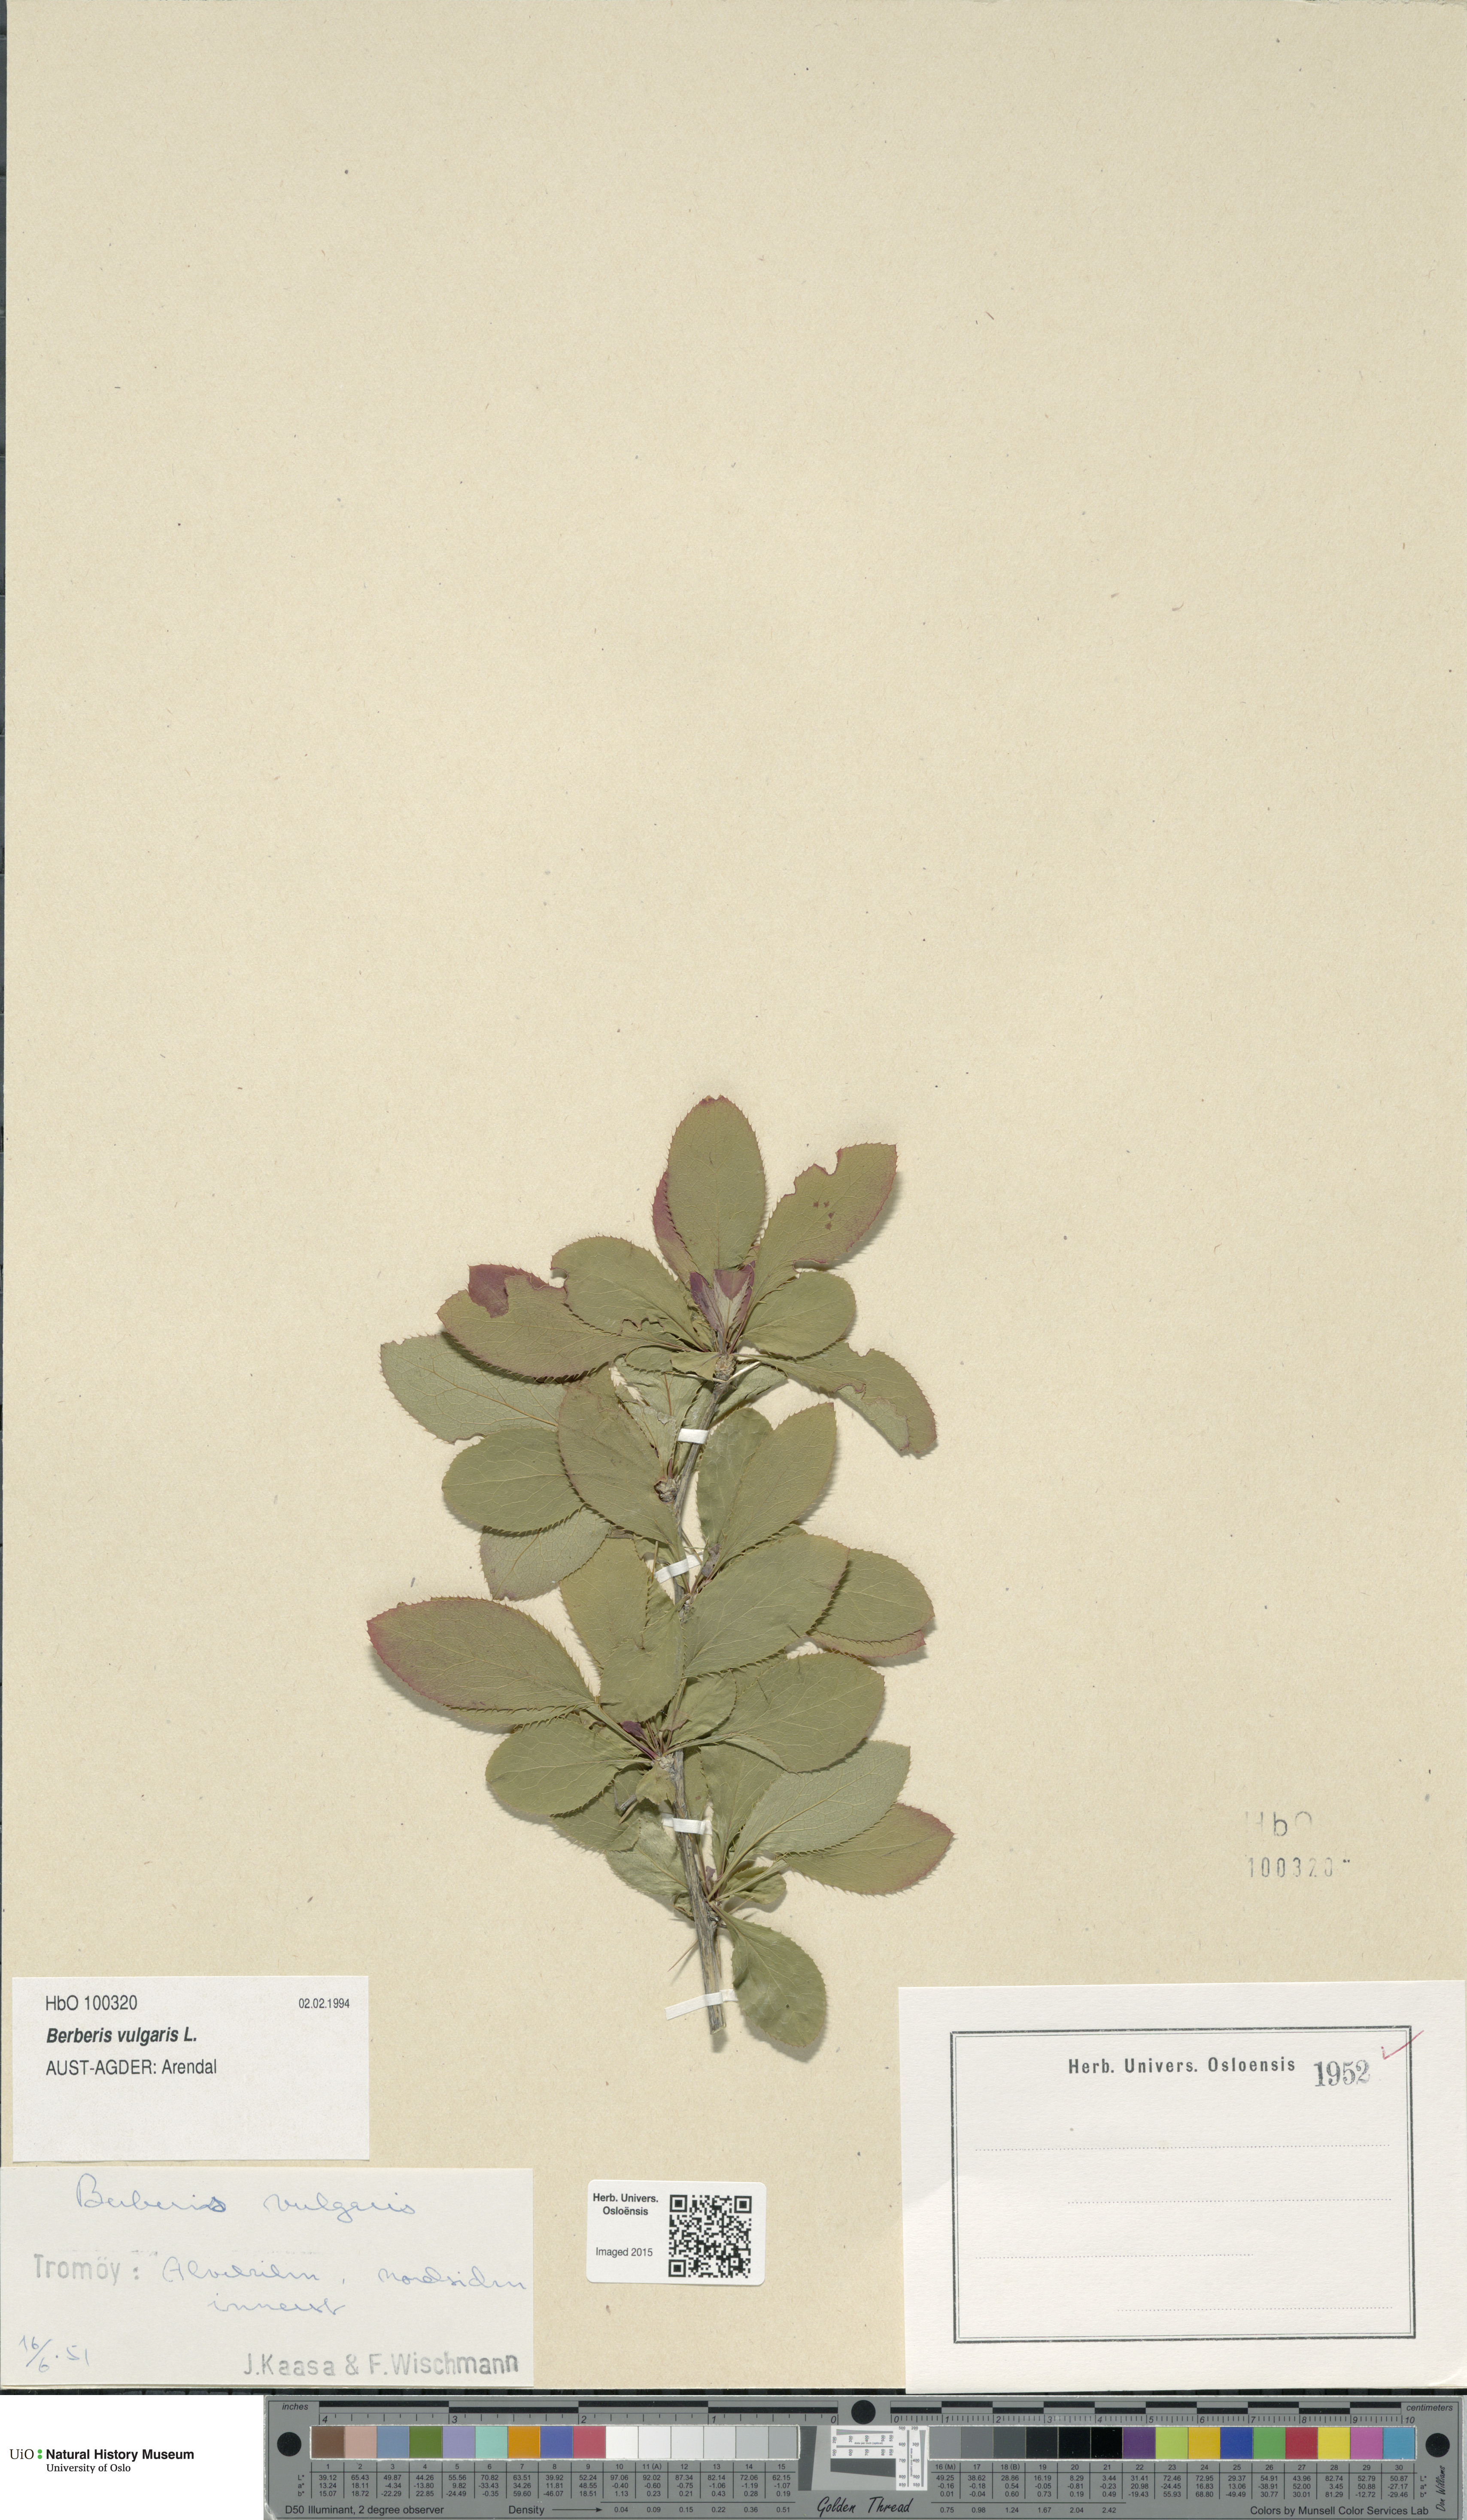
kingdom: Plantae
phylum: Tracheophyta
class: Magnoliopsida
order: Ranunculales
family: Berberidaceae
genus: Berberis
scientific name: Berberis vulgaris
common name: Barberry
